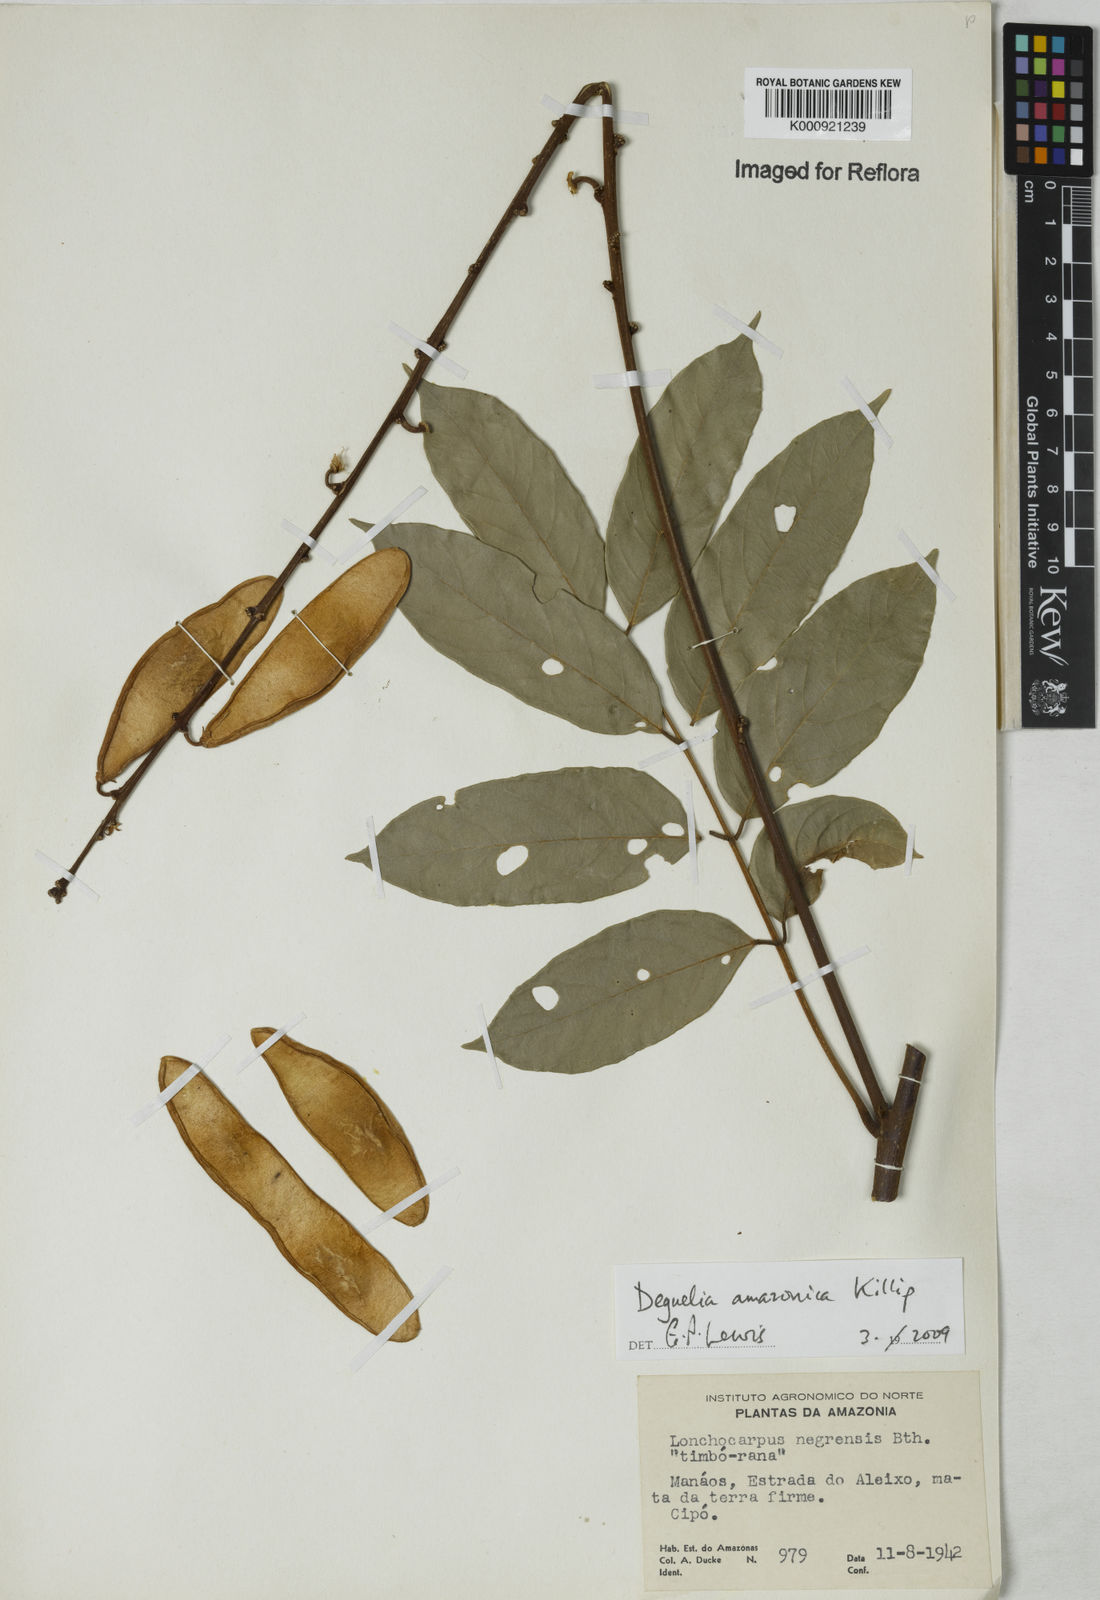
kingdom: Plantae
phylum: Tracheophyta
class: Magnoliopsida
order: Fabales
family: Fabaceae
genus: Deguelia
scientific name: Deguelia amazonica
